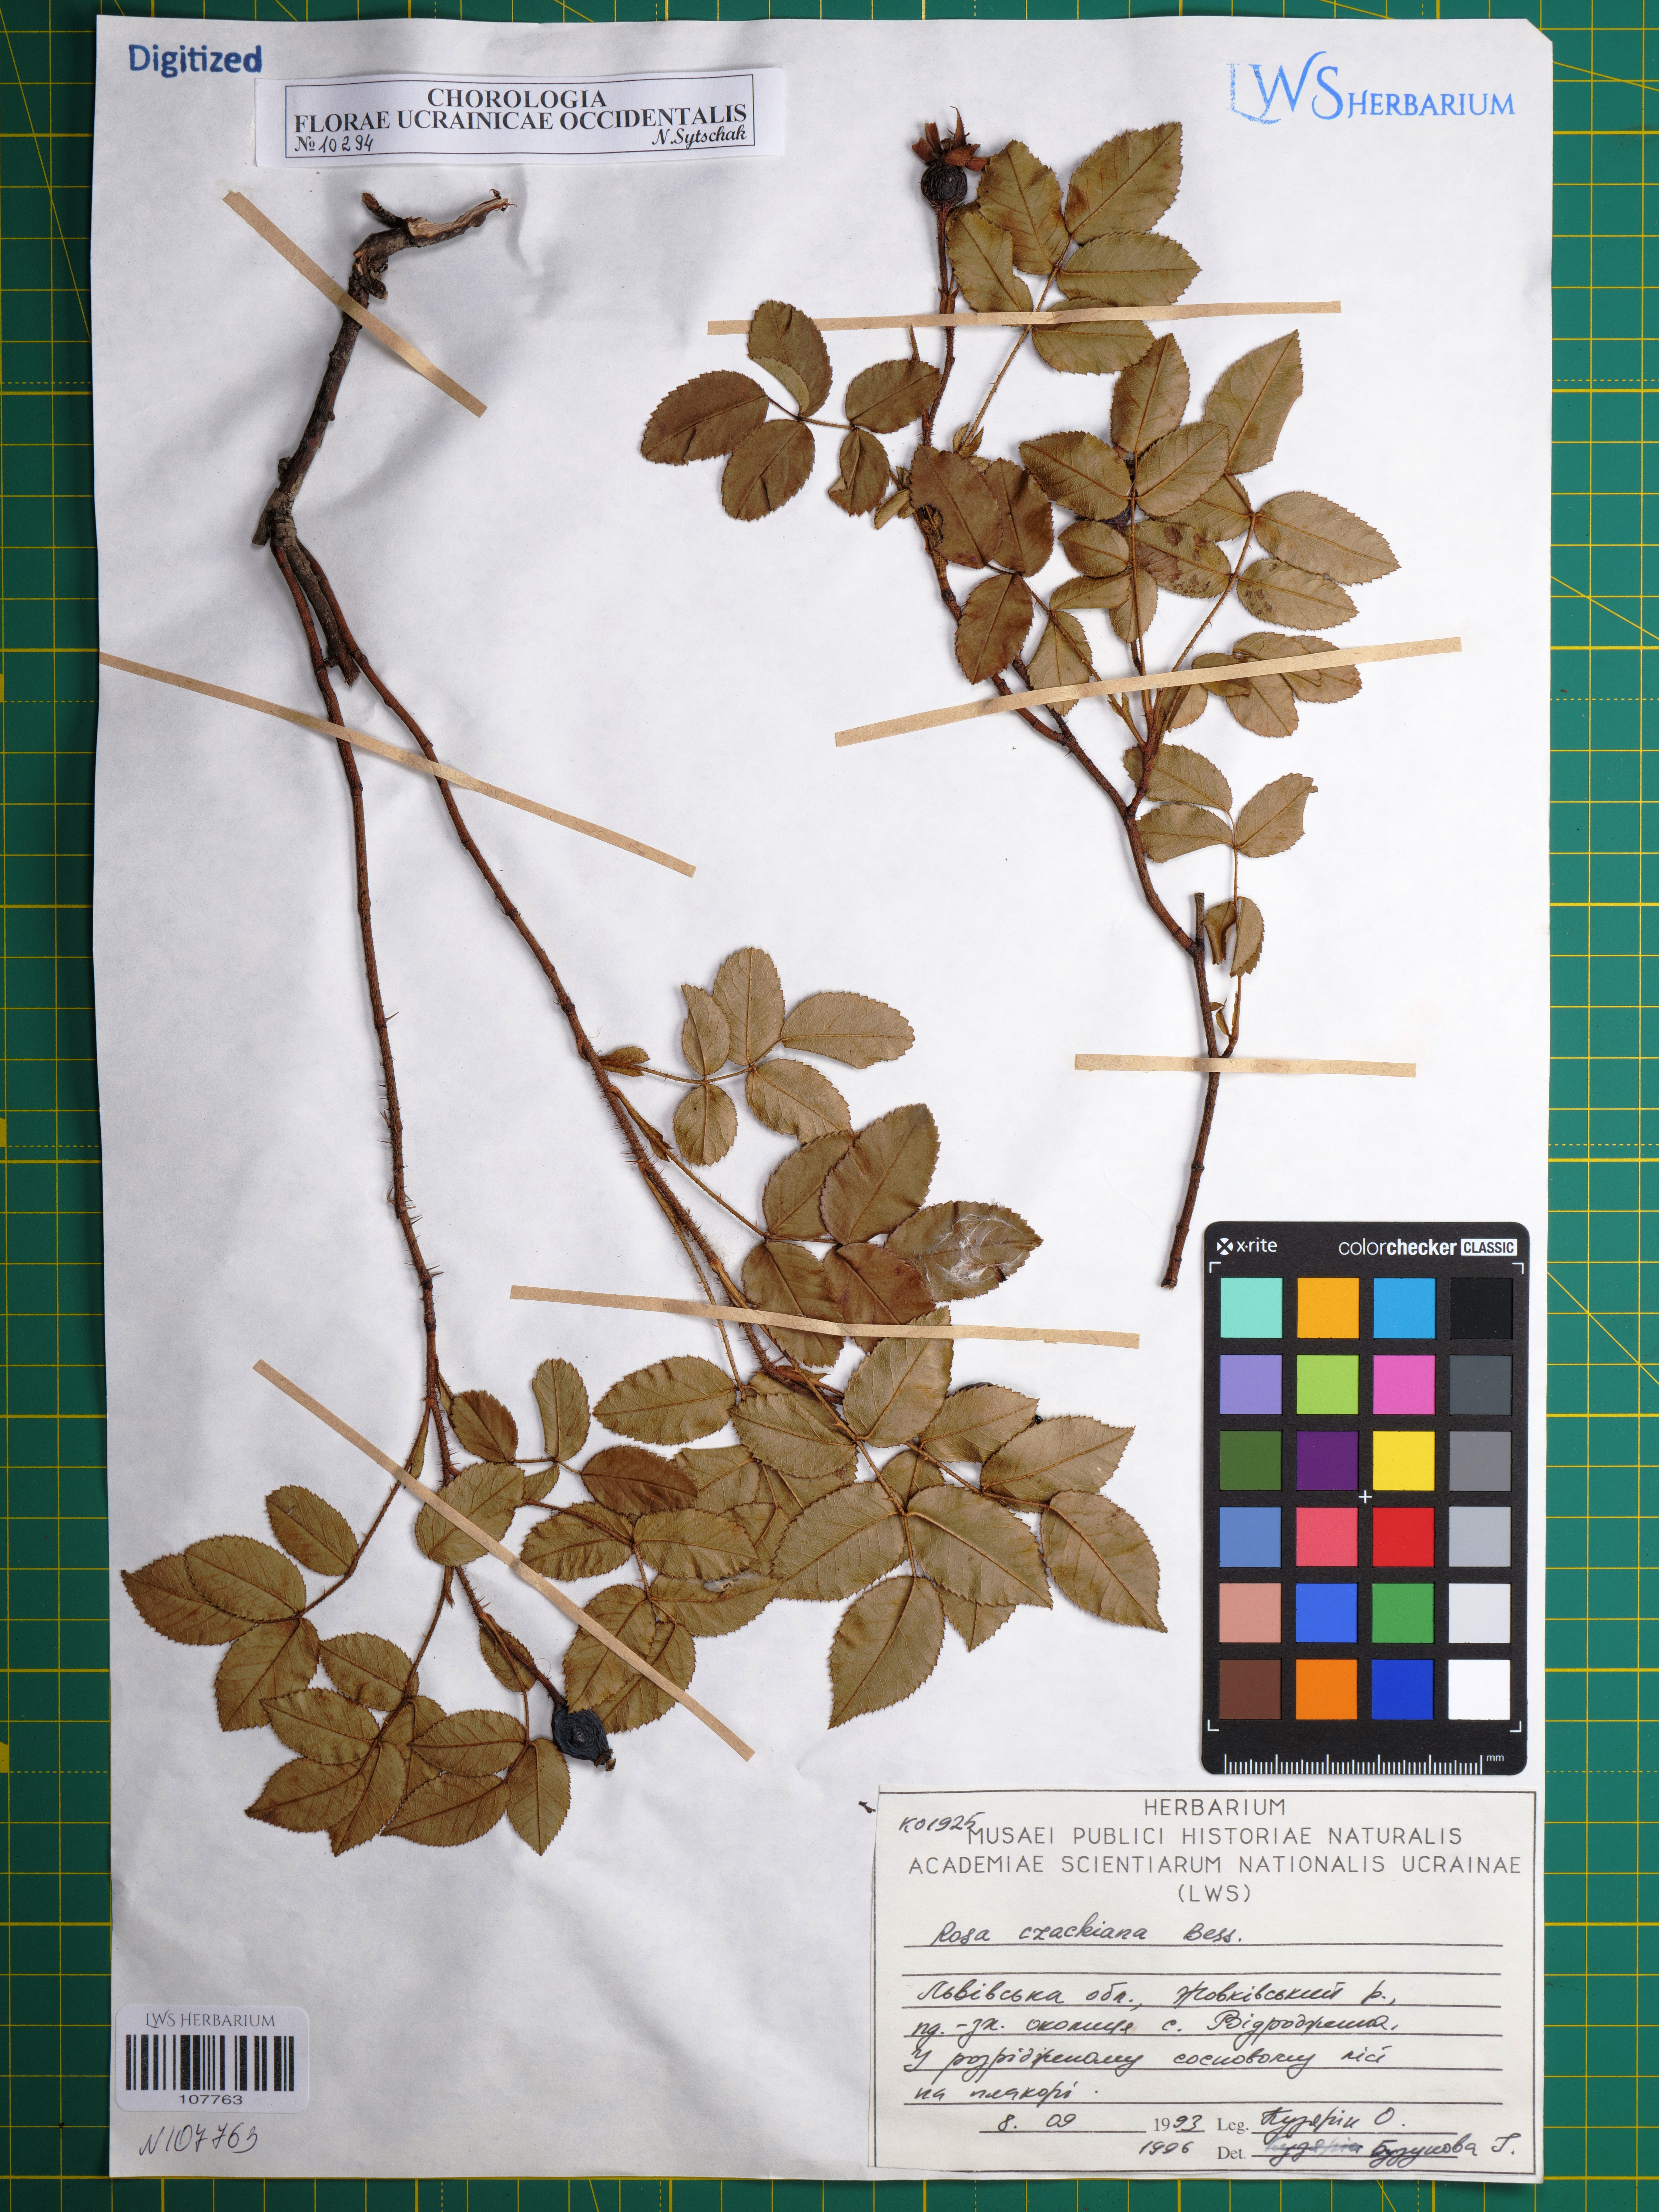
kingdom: Plantae
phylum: Tracheophyta
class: Magnoliopsida
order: Rosales
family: Rosaceae
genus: Rosa
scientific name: Rosa gallica
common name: French rose
